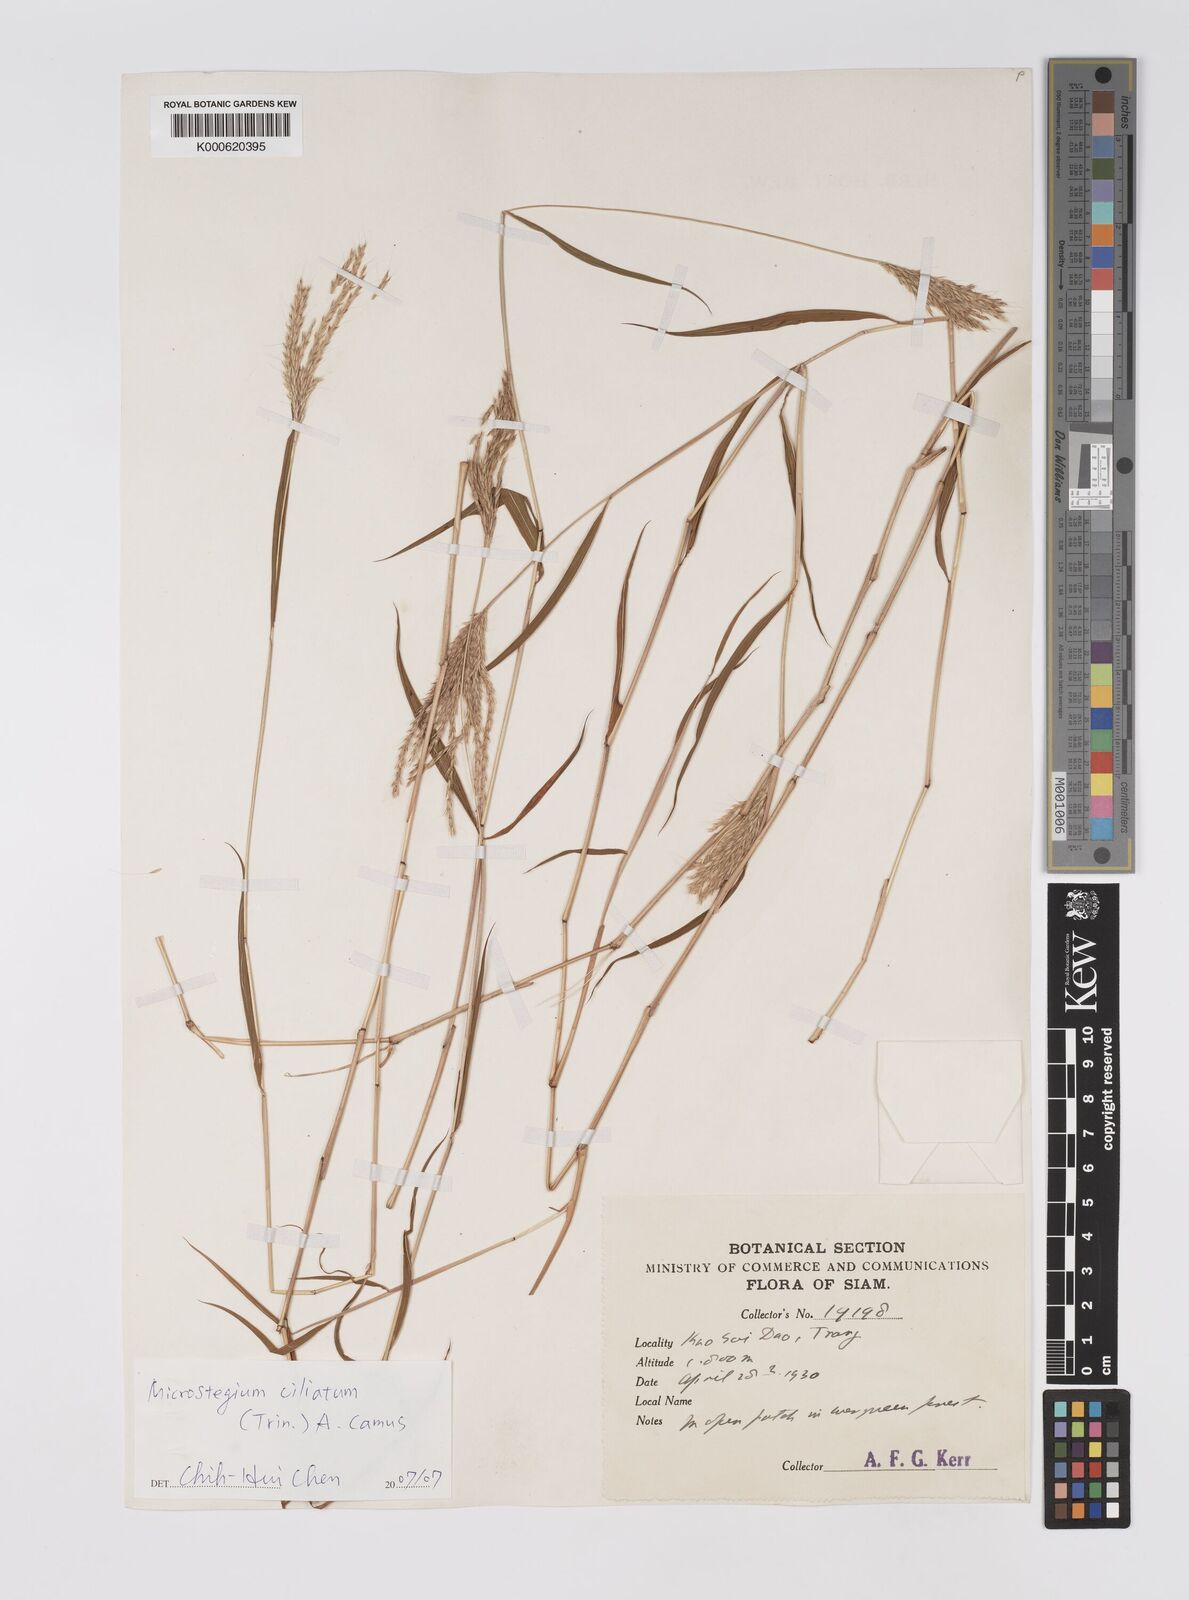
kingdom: Plantae
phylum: Tracheophyta
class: Liliopsida
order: Poales
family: Poaceae
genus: Microstegium
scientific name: Microstegium fasciculatum
